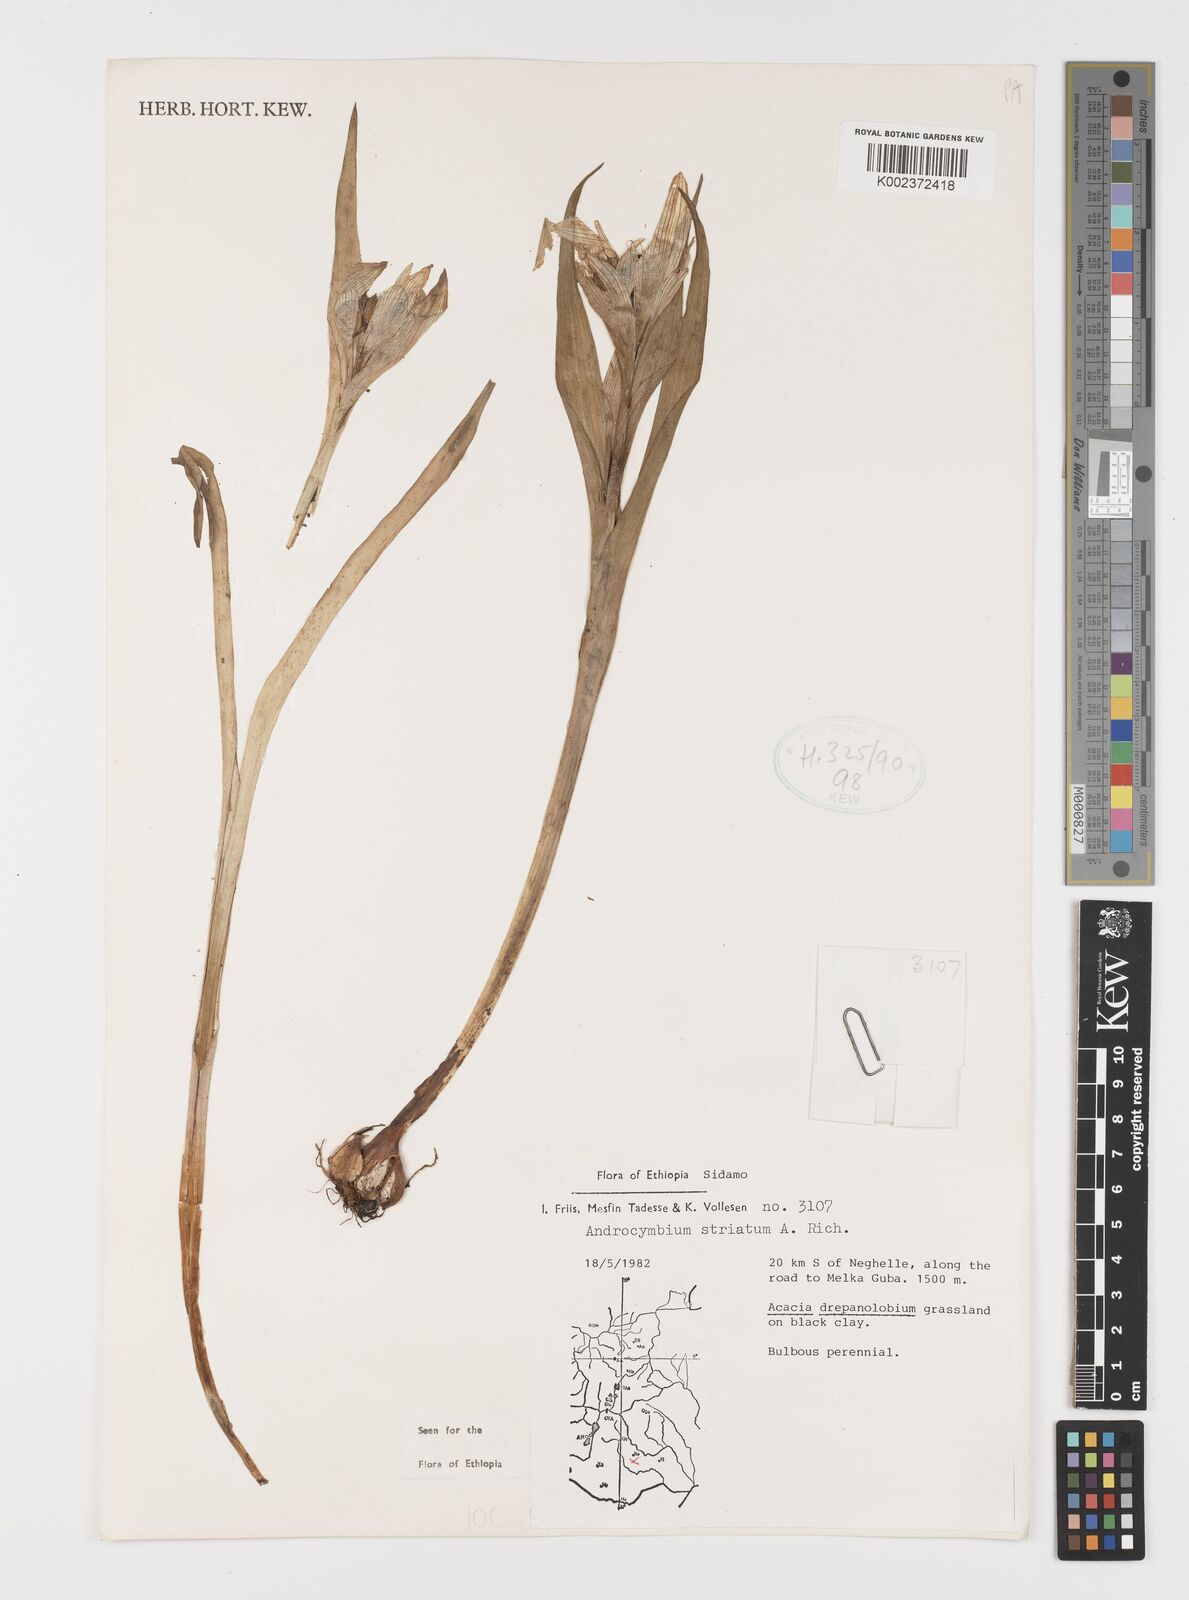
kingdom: Plantae
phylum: Tracheophyta
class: Liliopsida
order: Liliales
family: Colchicaceae
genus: Colchicum
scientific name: Colchicum striatum
